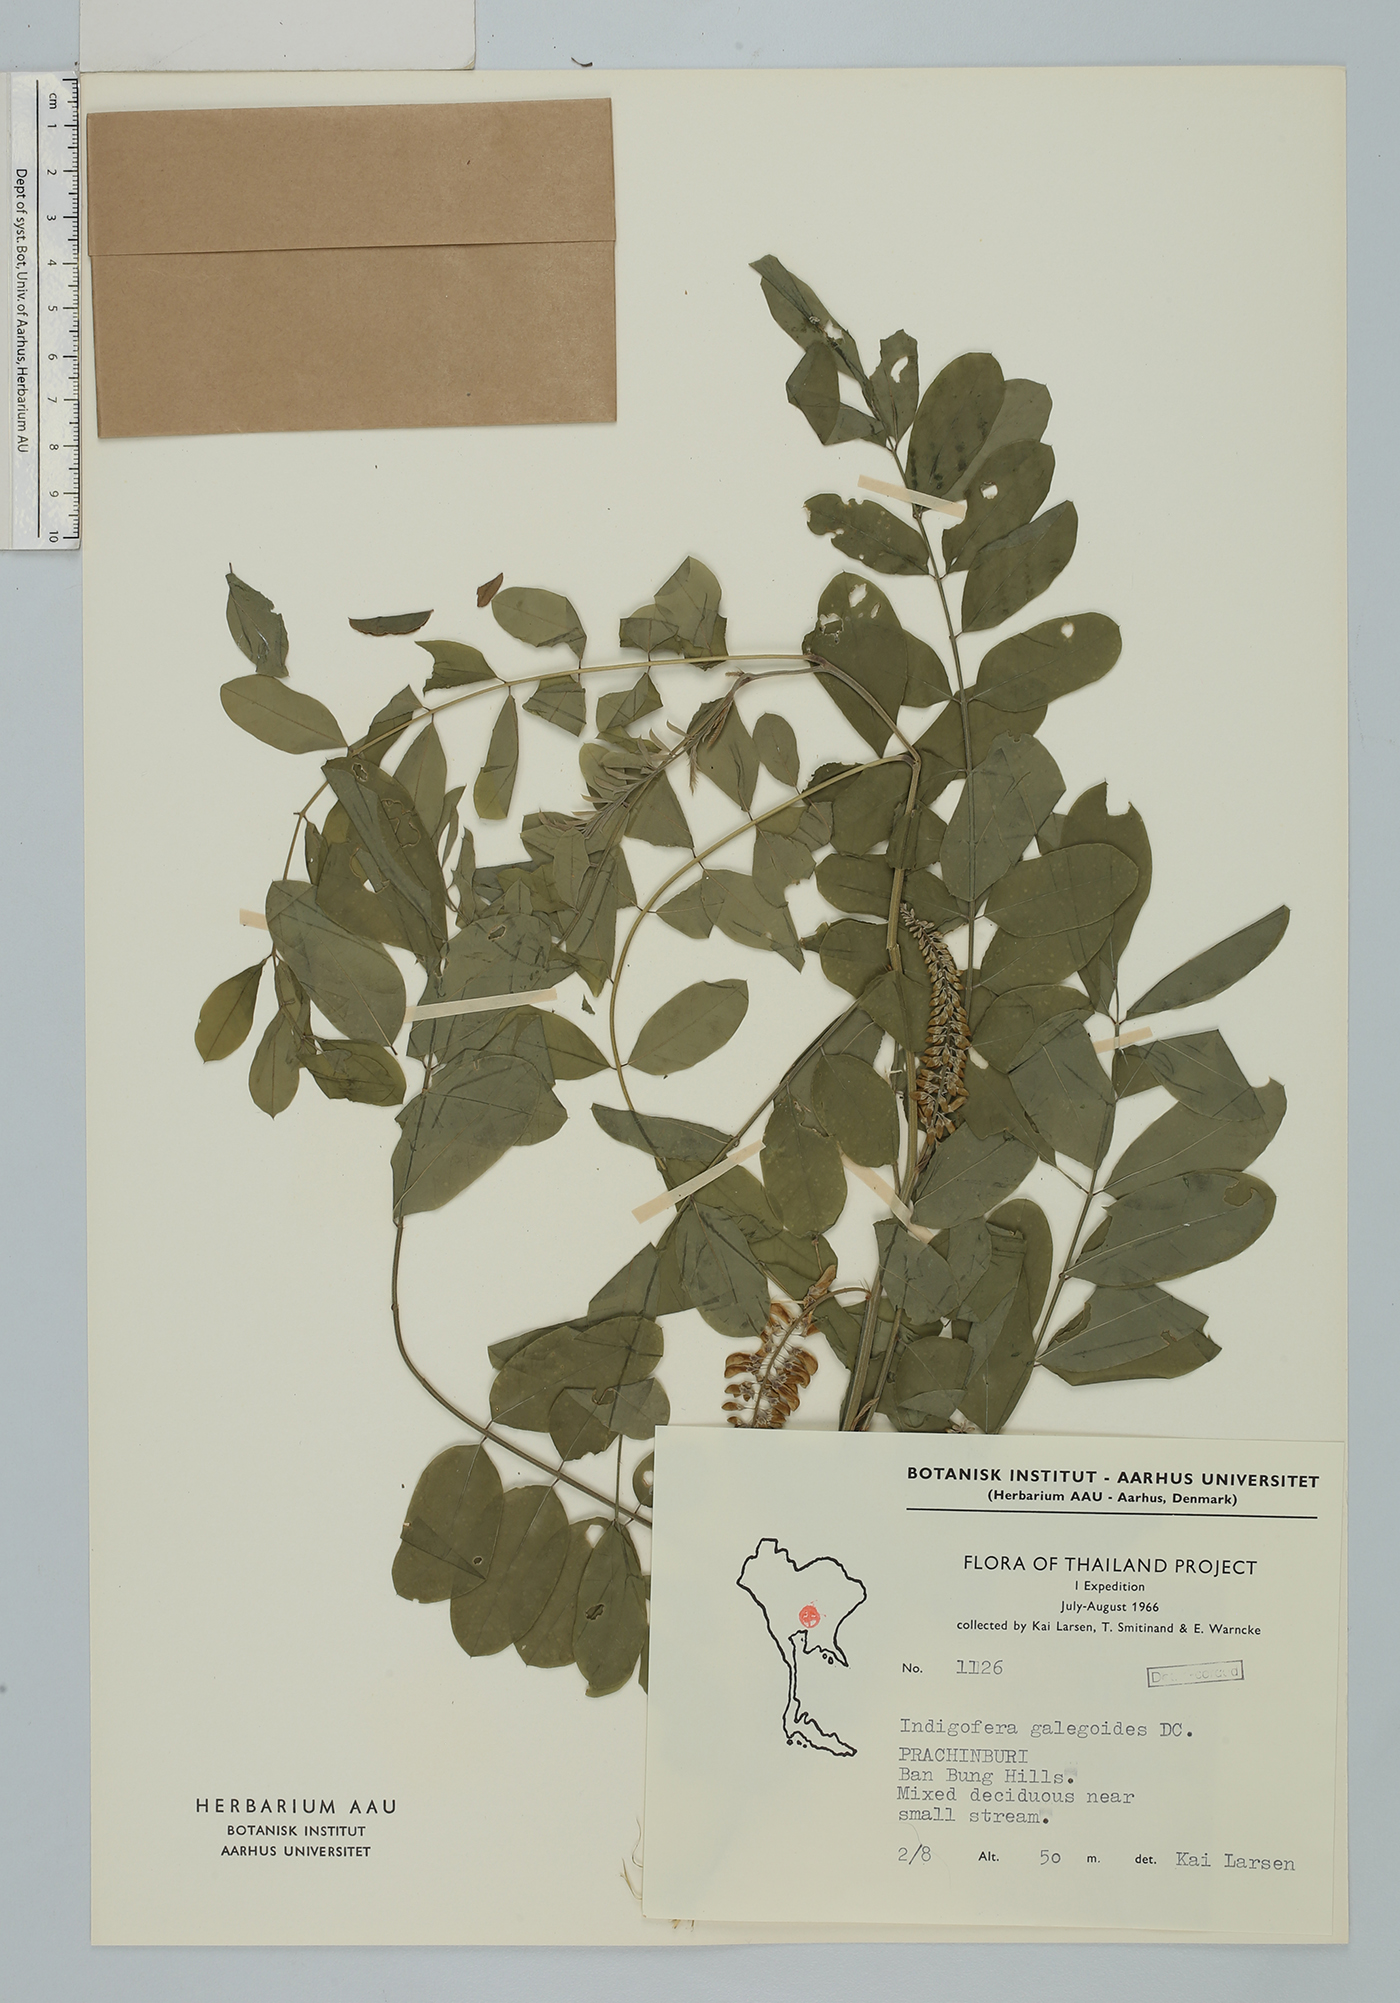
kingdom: Plantae
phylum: Tracheophyta
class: Magnoliopsida
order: Fabales
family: Fabaceae
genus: Indigofera
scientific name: Indigofera galegoides
